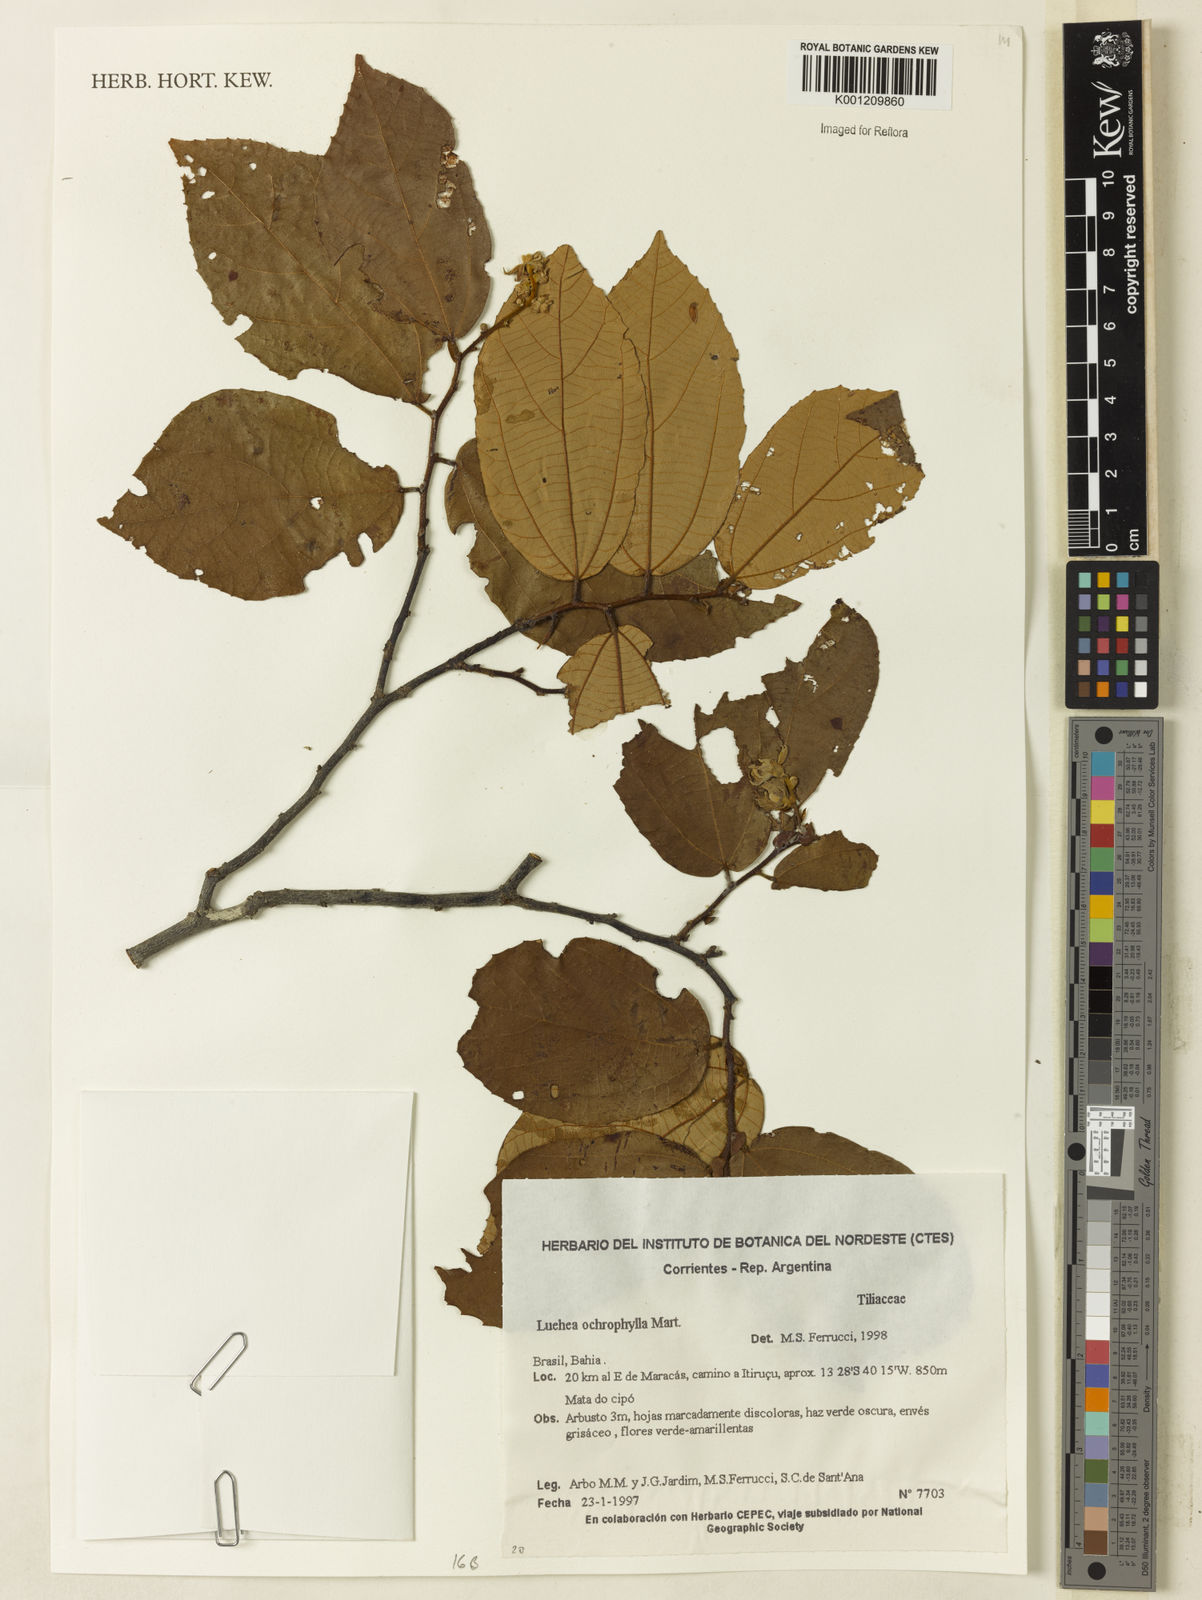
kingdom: Plantae
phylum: Tracheophyta
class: Magnoliopsida
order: Malvales
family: Malvaceae
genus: Luehea
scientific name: Luehea ochrophylla
